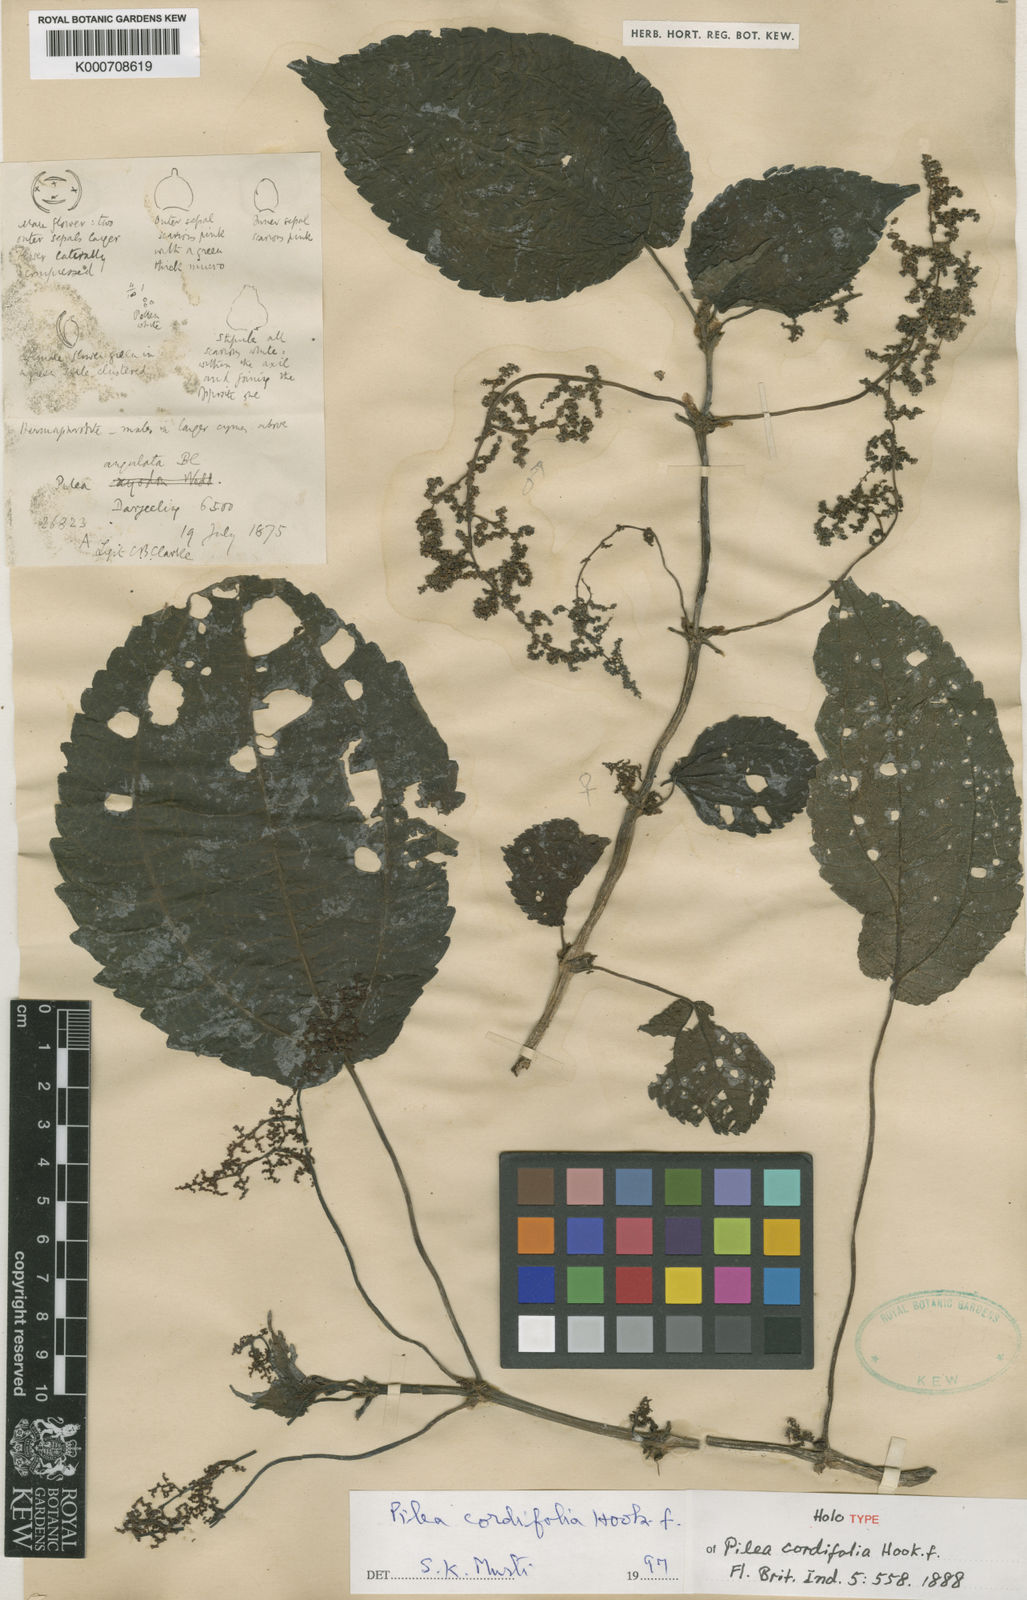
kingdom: Plantae
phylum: Tracheophyta
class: Magnoliopsida
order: Rosales
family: Urticaceae
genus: Pilea
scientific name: Pilea cordifolia
